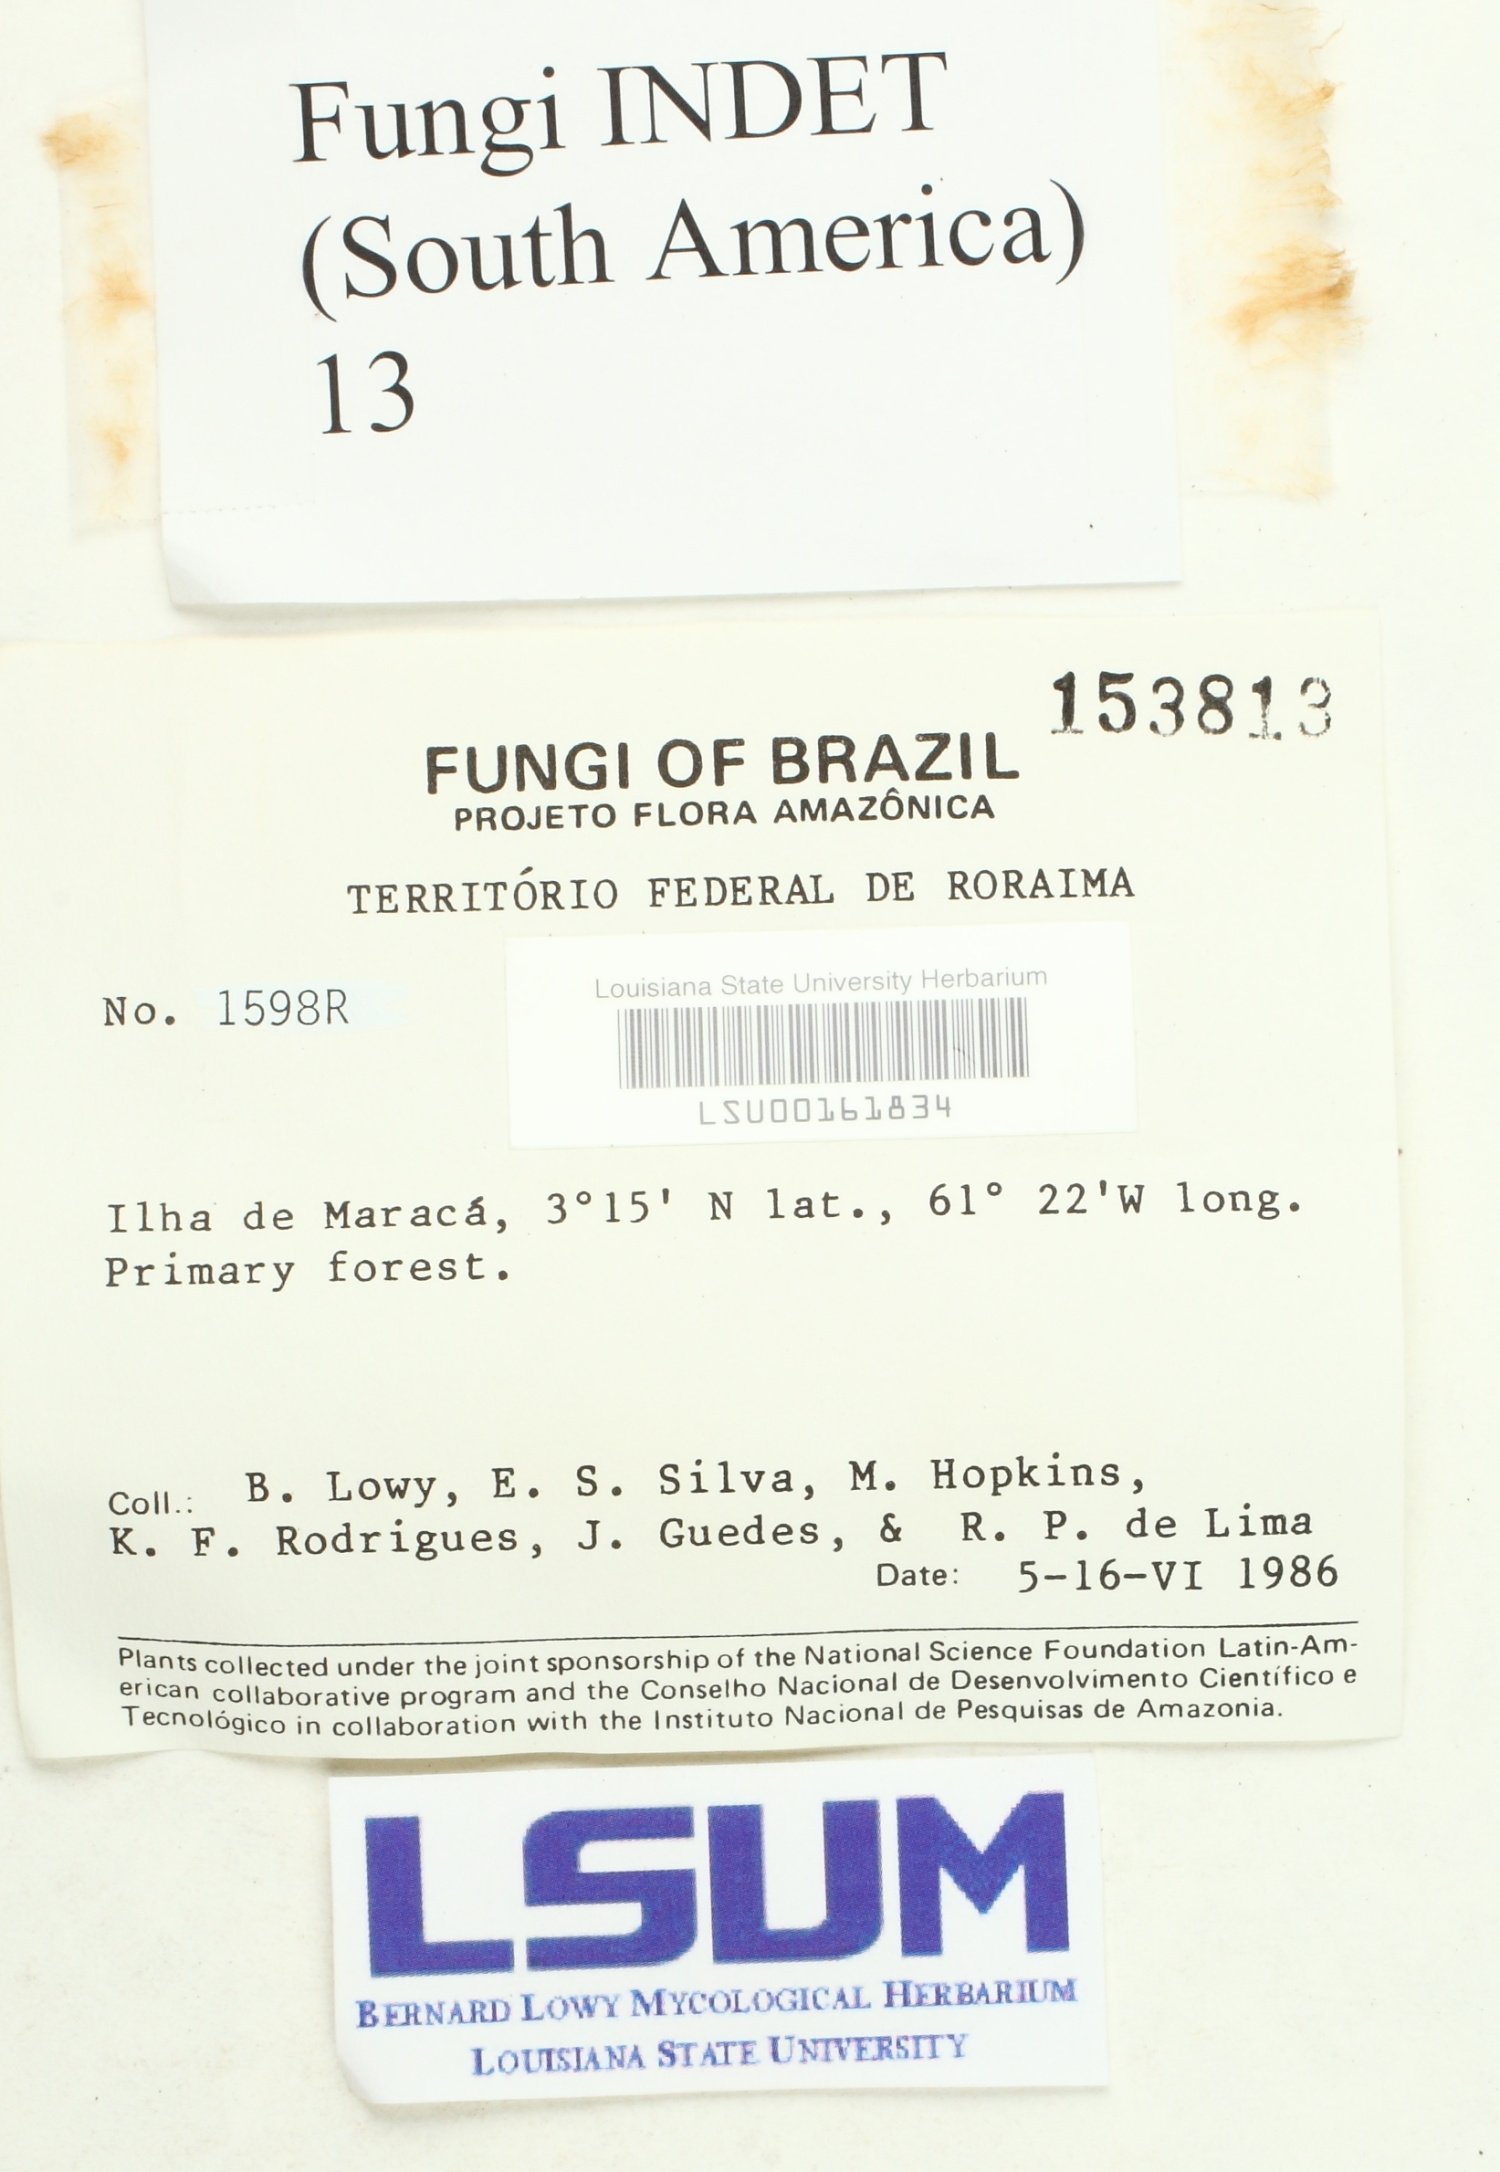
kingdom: Fungi
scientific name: Fungi
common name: Fungi
